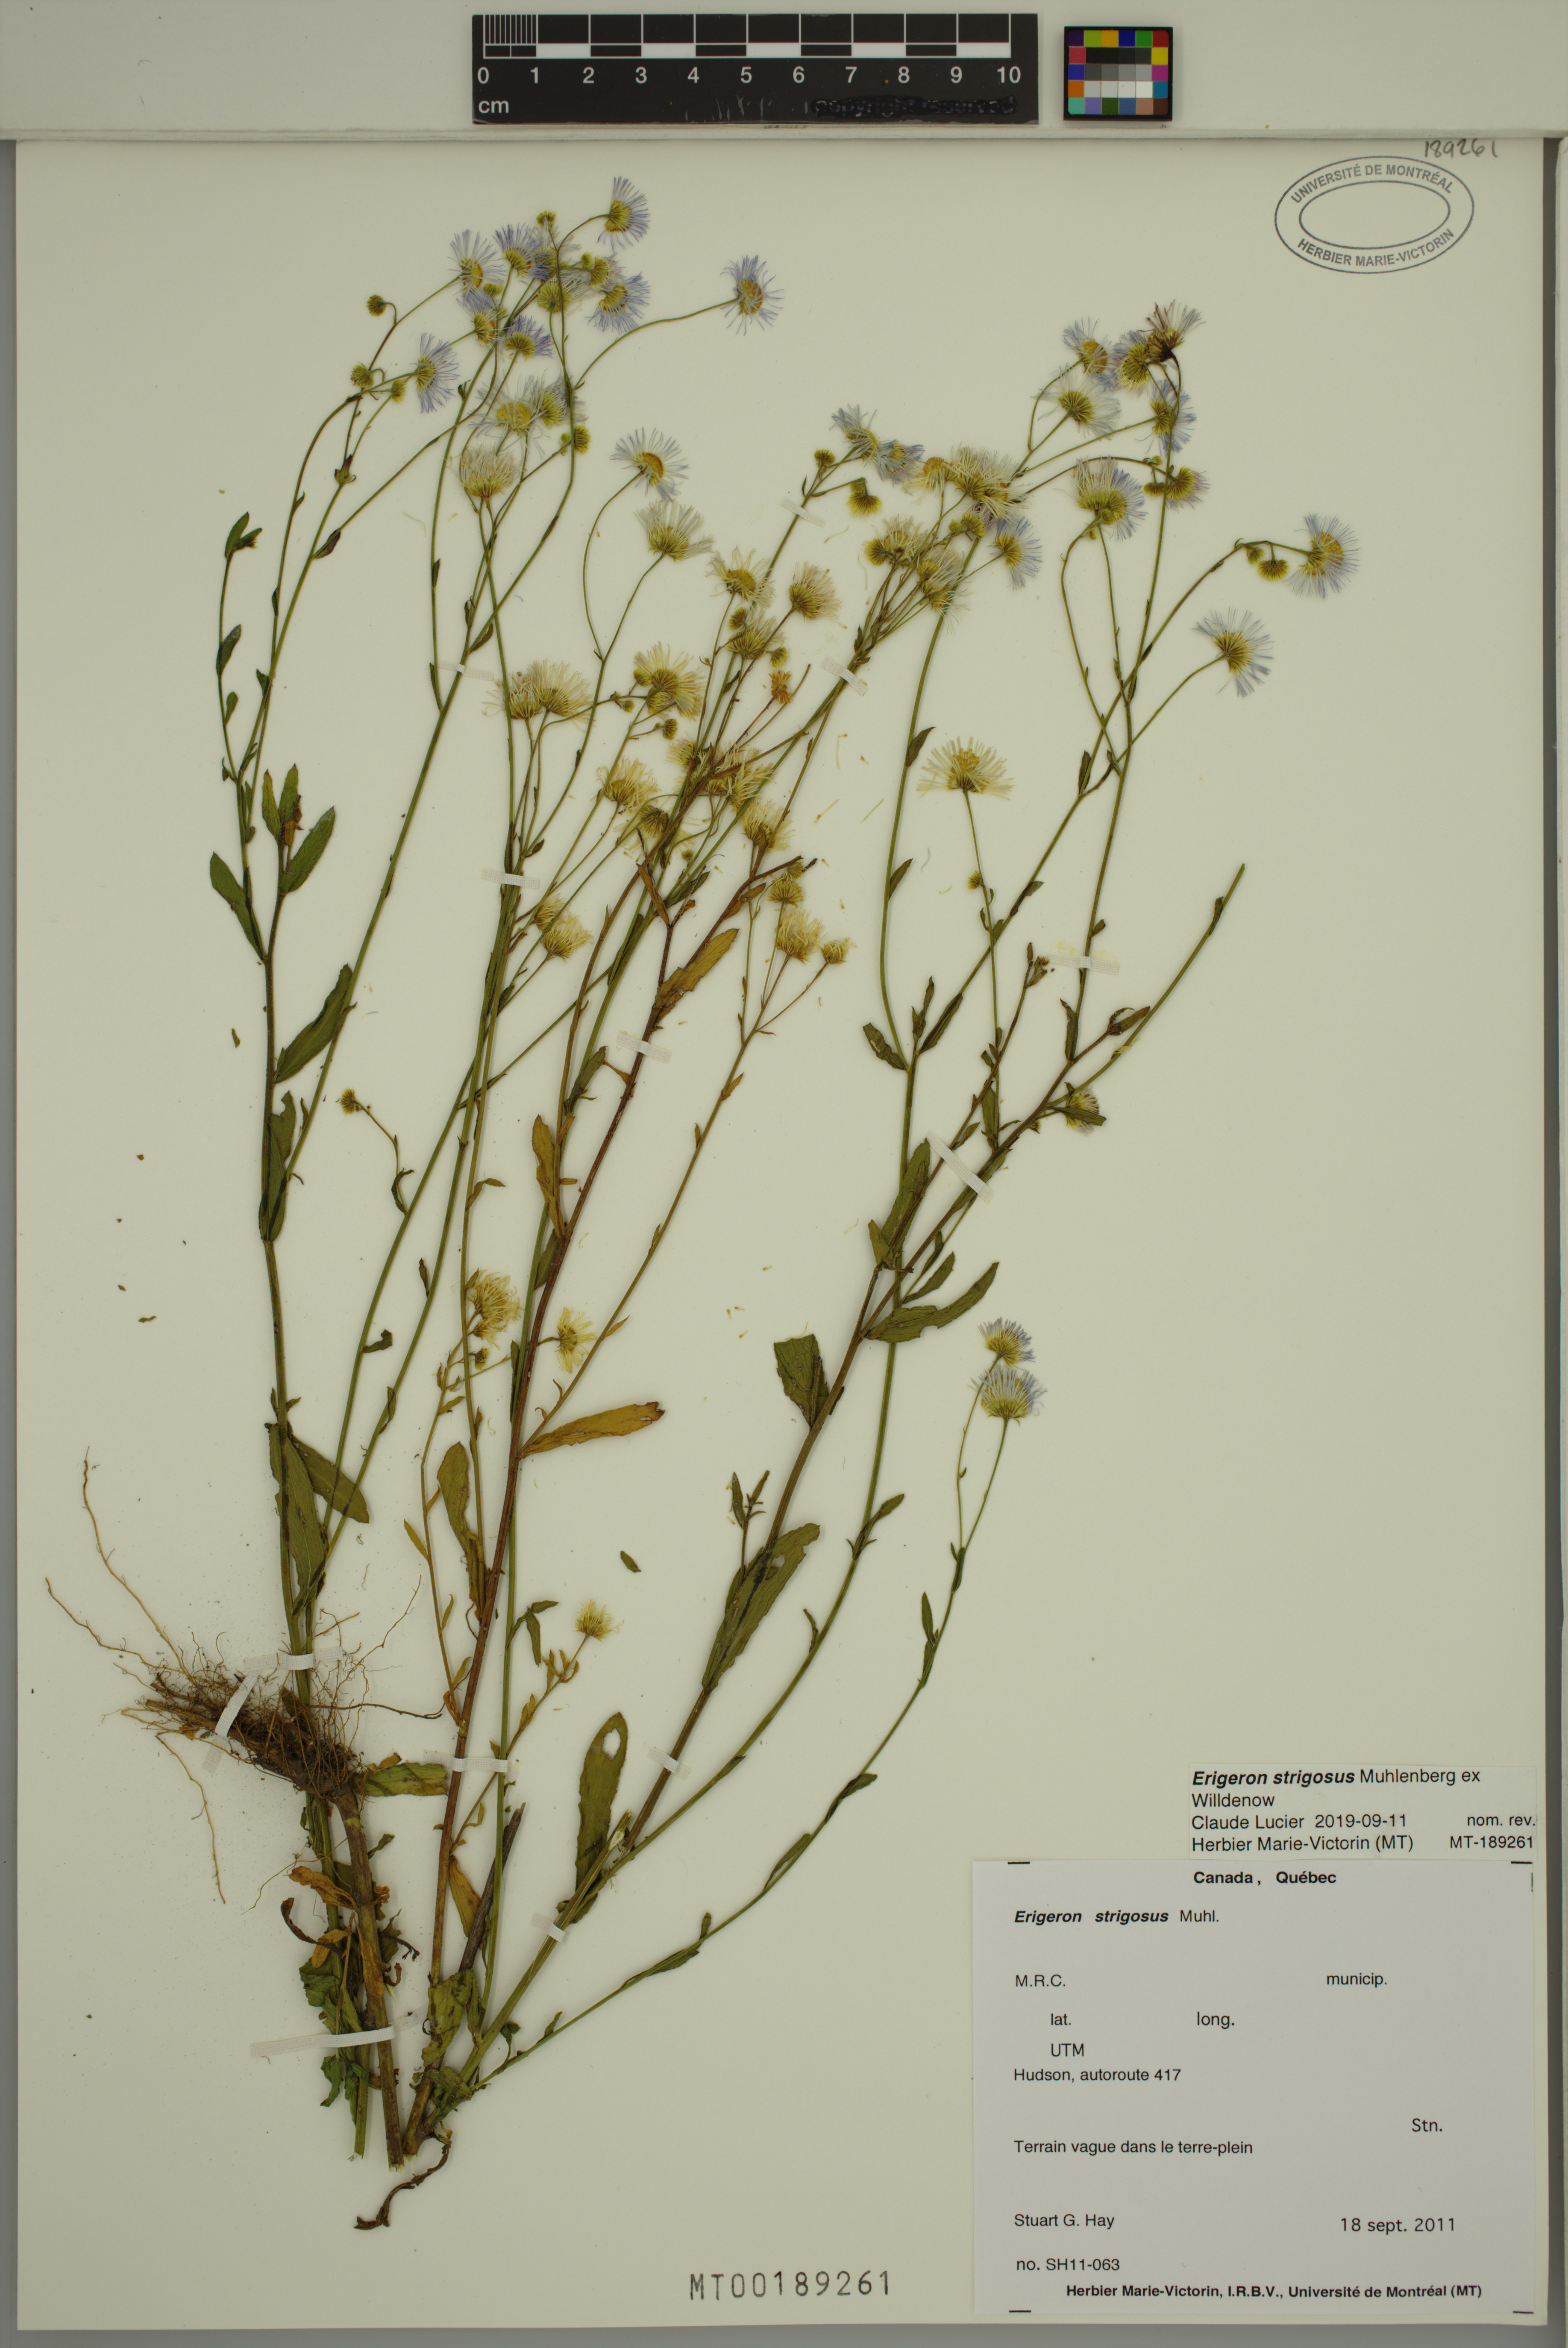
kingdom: Plantae
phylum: Tracheophyta
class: Magnoliopsida
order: Asterales
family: Asteraceae
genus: Erigeron
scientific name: Erigeron annuus
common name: Tall fleabane
